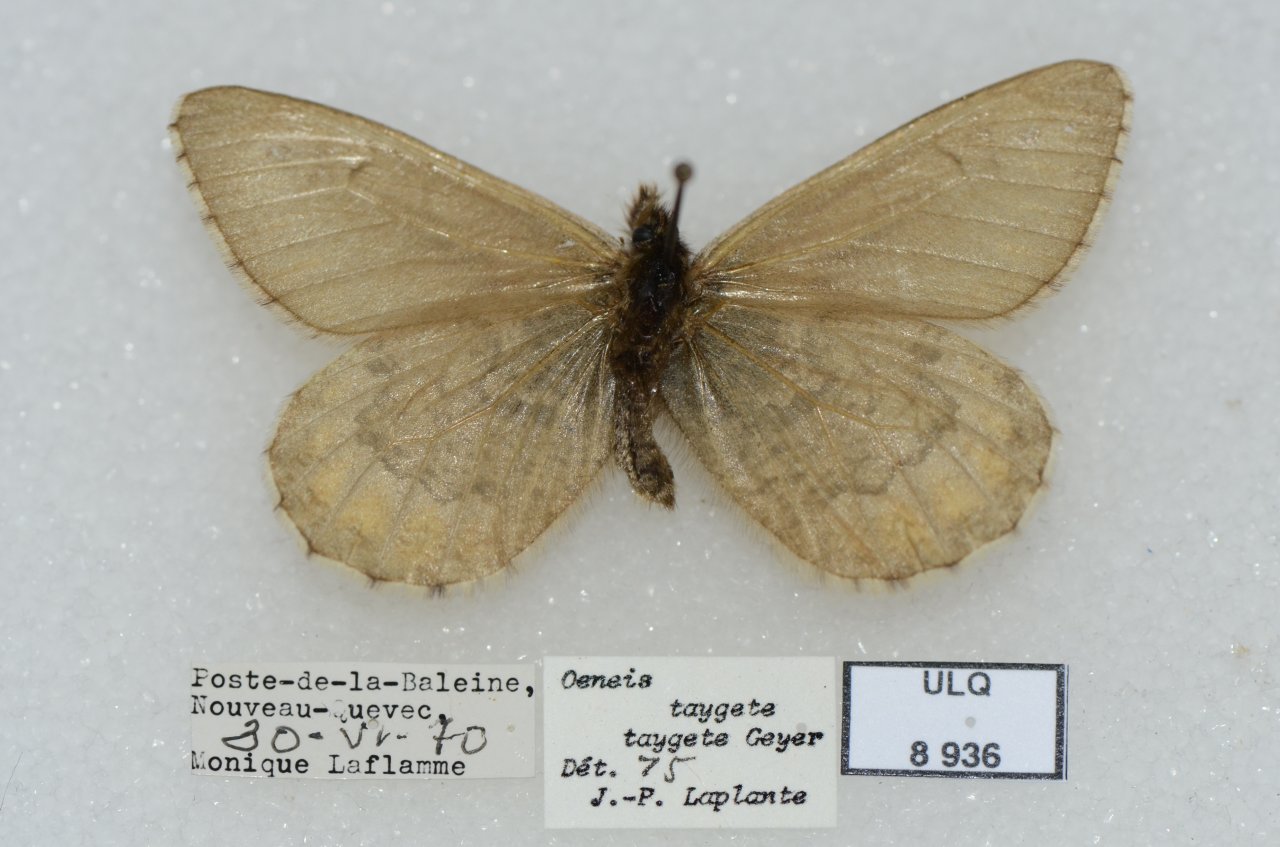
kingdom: Animalia
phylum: Arthropoda
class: Insecta
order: Lepidoptera
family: Nymphalidae
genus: Oeneis
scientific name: Oeneis bore
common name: White-veined Arctic
